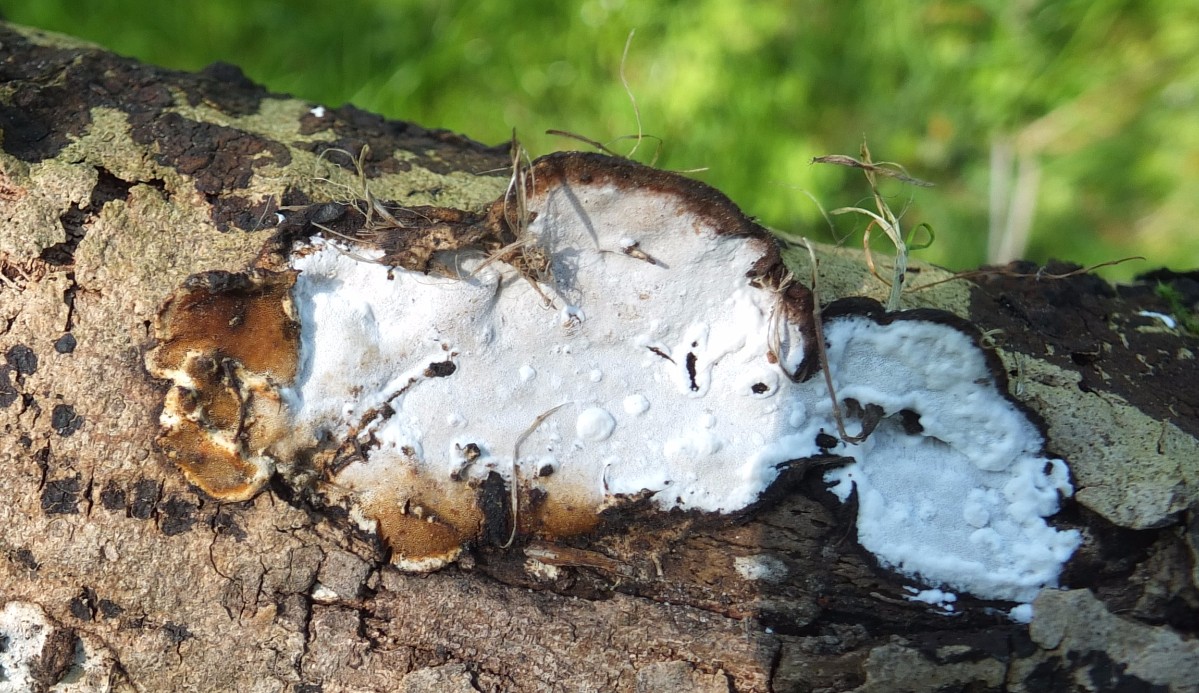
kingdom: Fungi
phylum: Basidiomycota
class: Agaricomycetes
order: Polyporales
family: Incrustoporiaceae
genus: Skeletocutis
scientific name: Skeletocutis nemoralis
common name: stor krystalporesvamp
